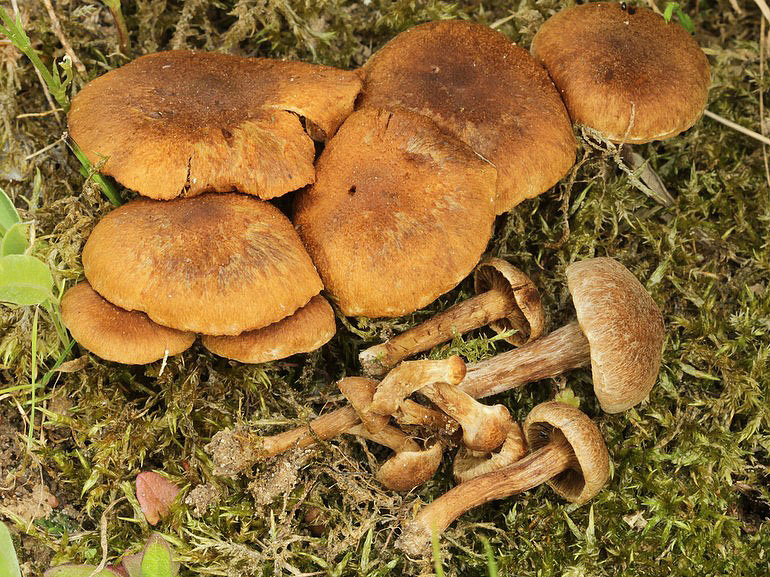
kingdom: Fungi
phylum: Basidiomycota
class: Agaricomycetes
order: Agaricales
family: Inocybaceae
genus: Inocybe
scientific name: Inocybe dulcamara
